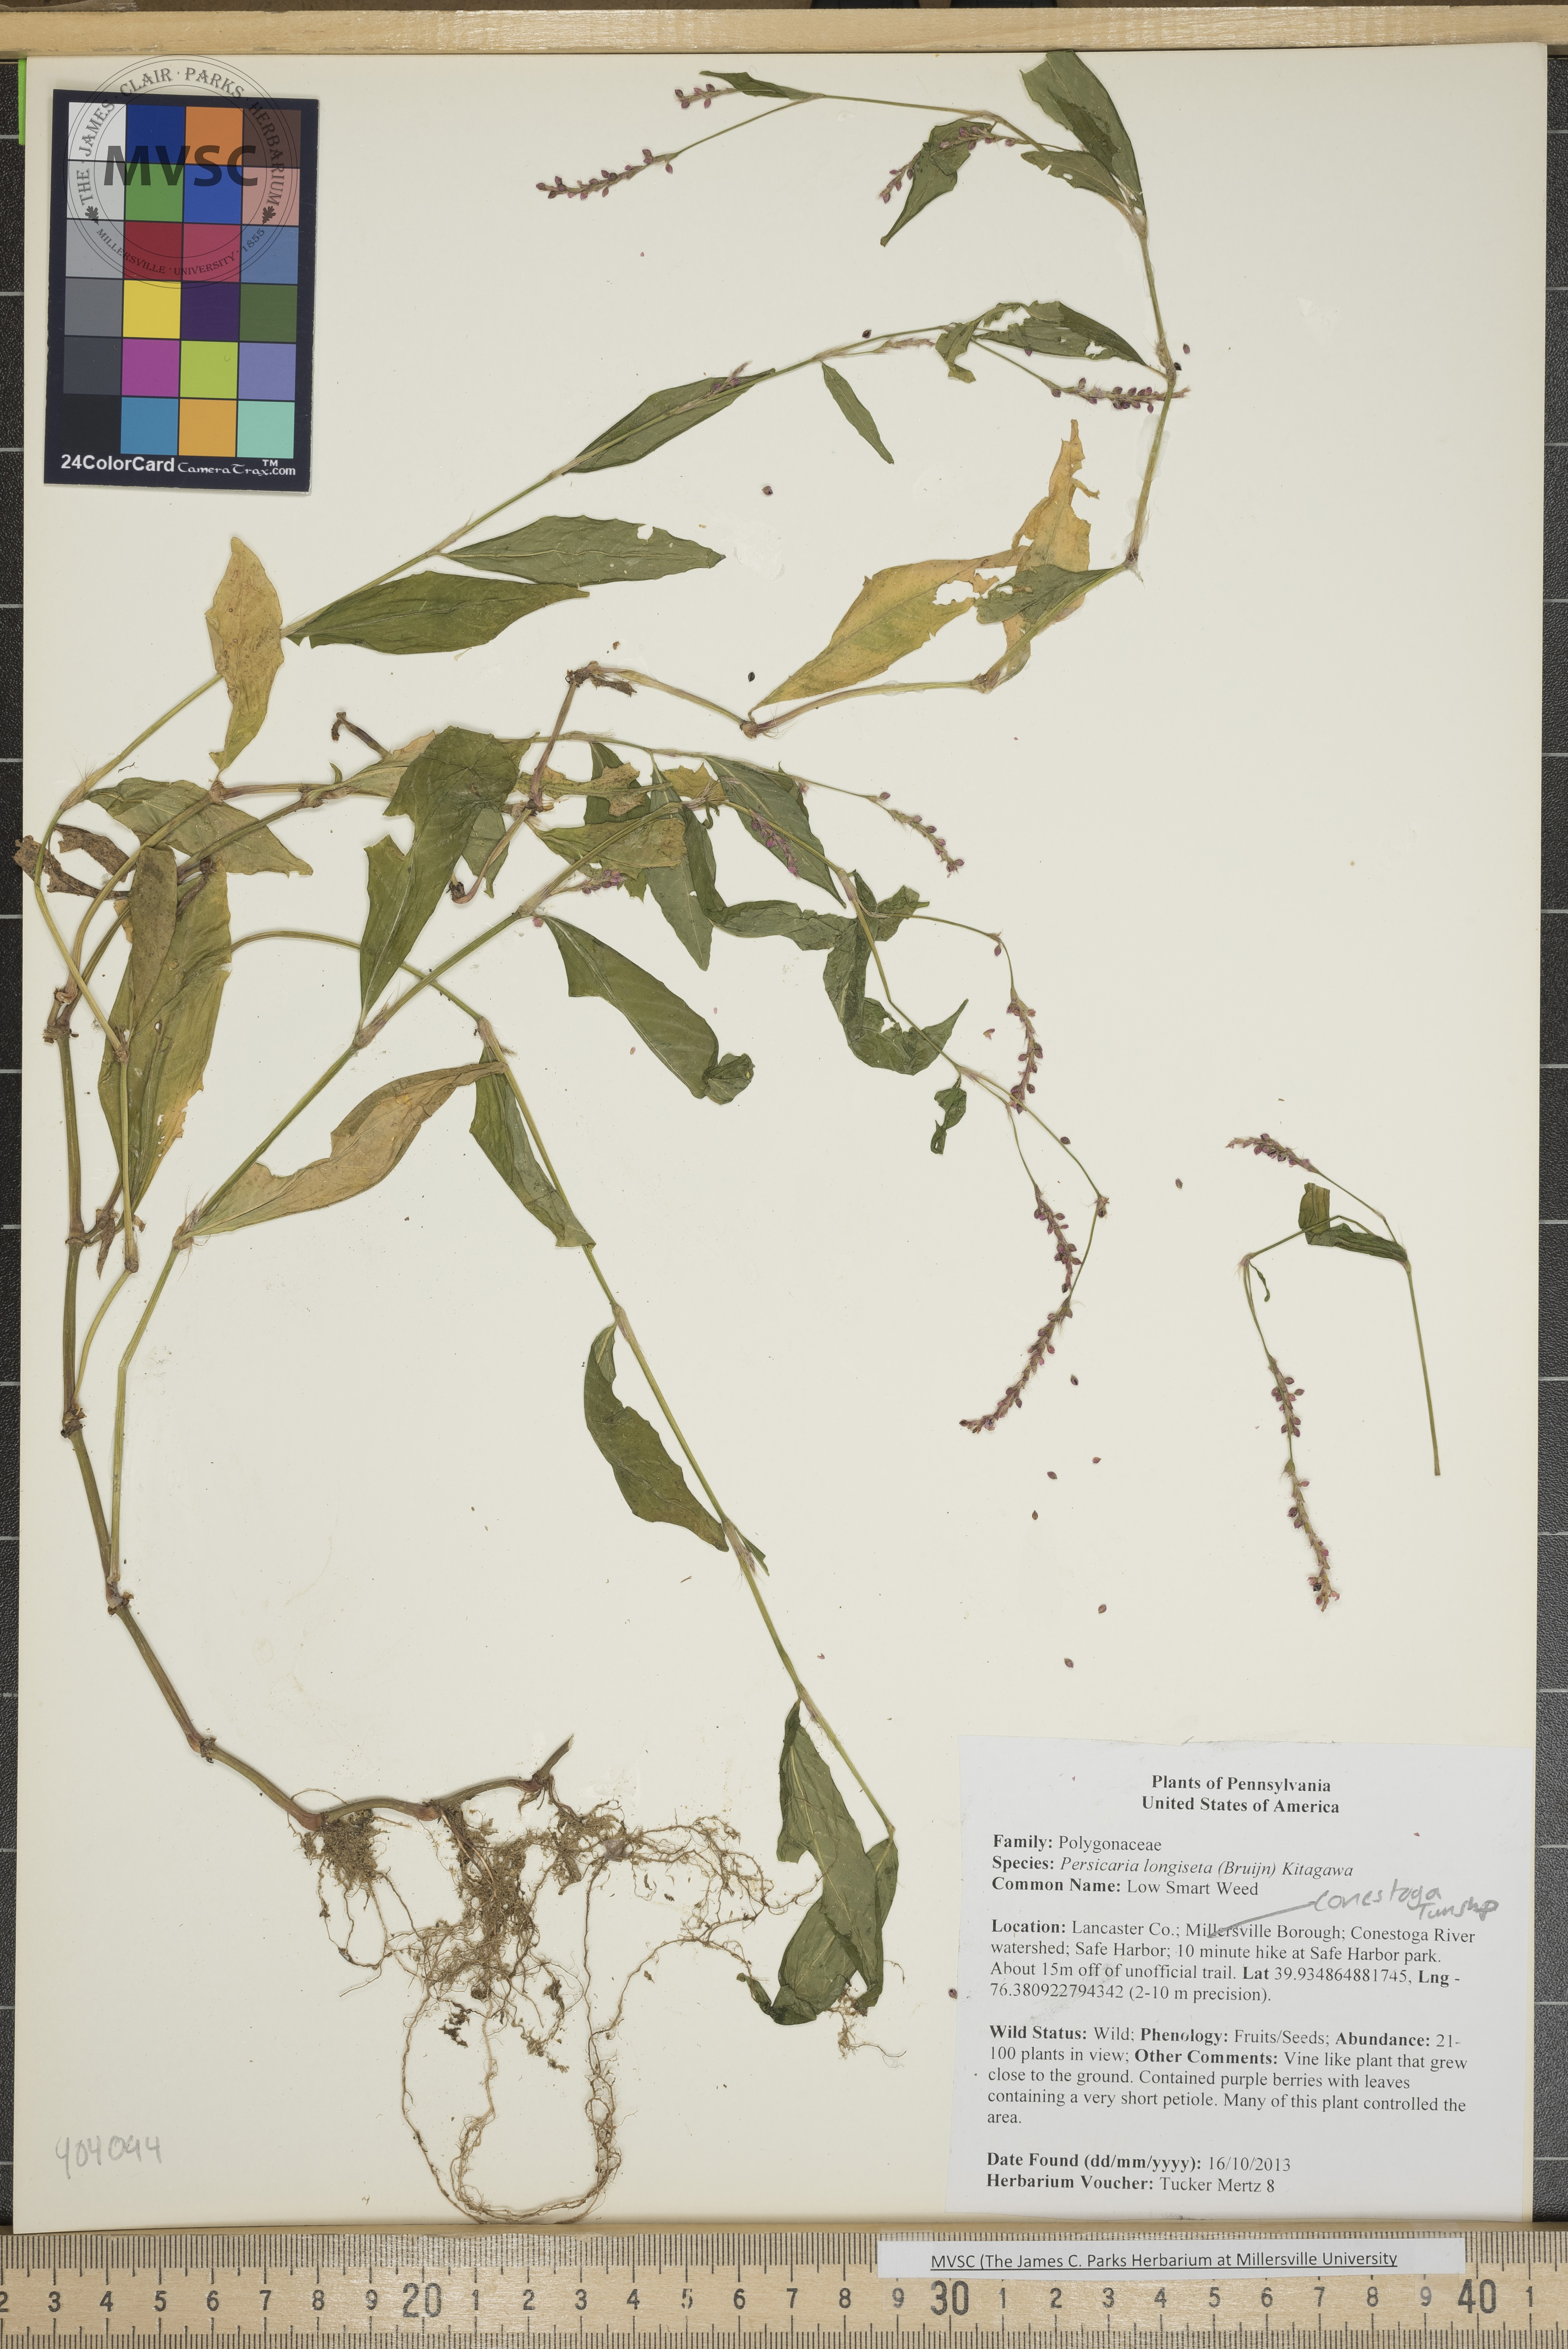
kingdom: Plantae
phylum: Tracheophyta
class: Magnoliopsida
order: Caryophyllales
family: Polygonaceae
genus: Persicaria
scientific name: Persicaria longiseta
